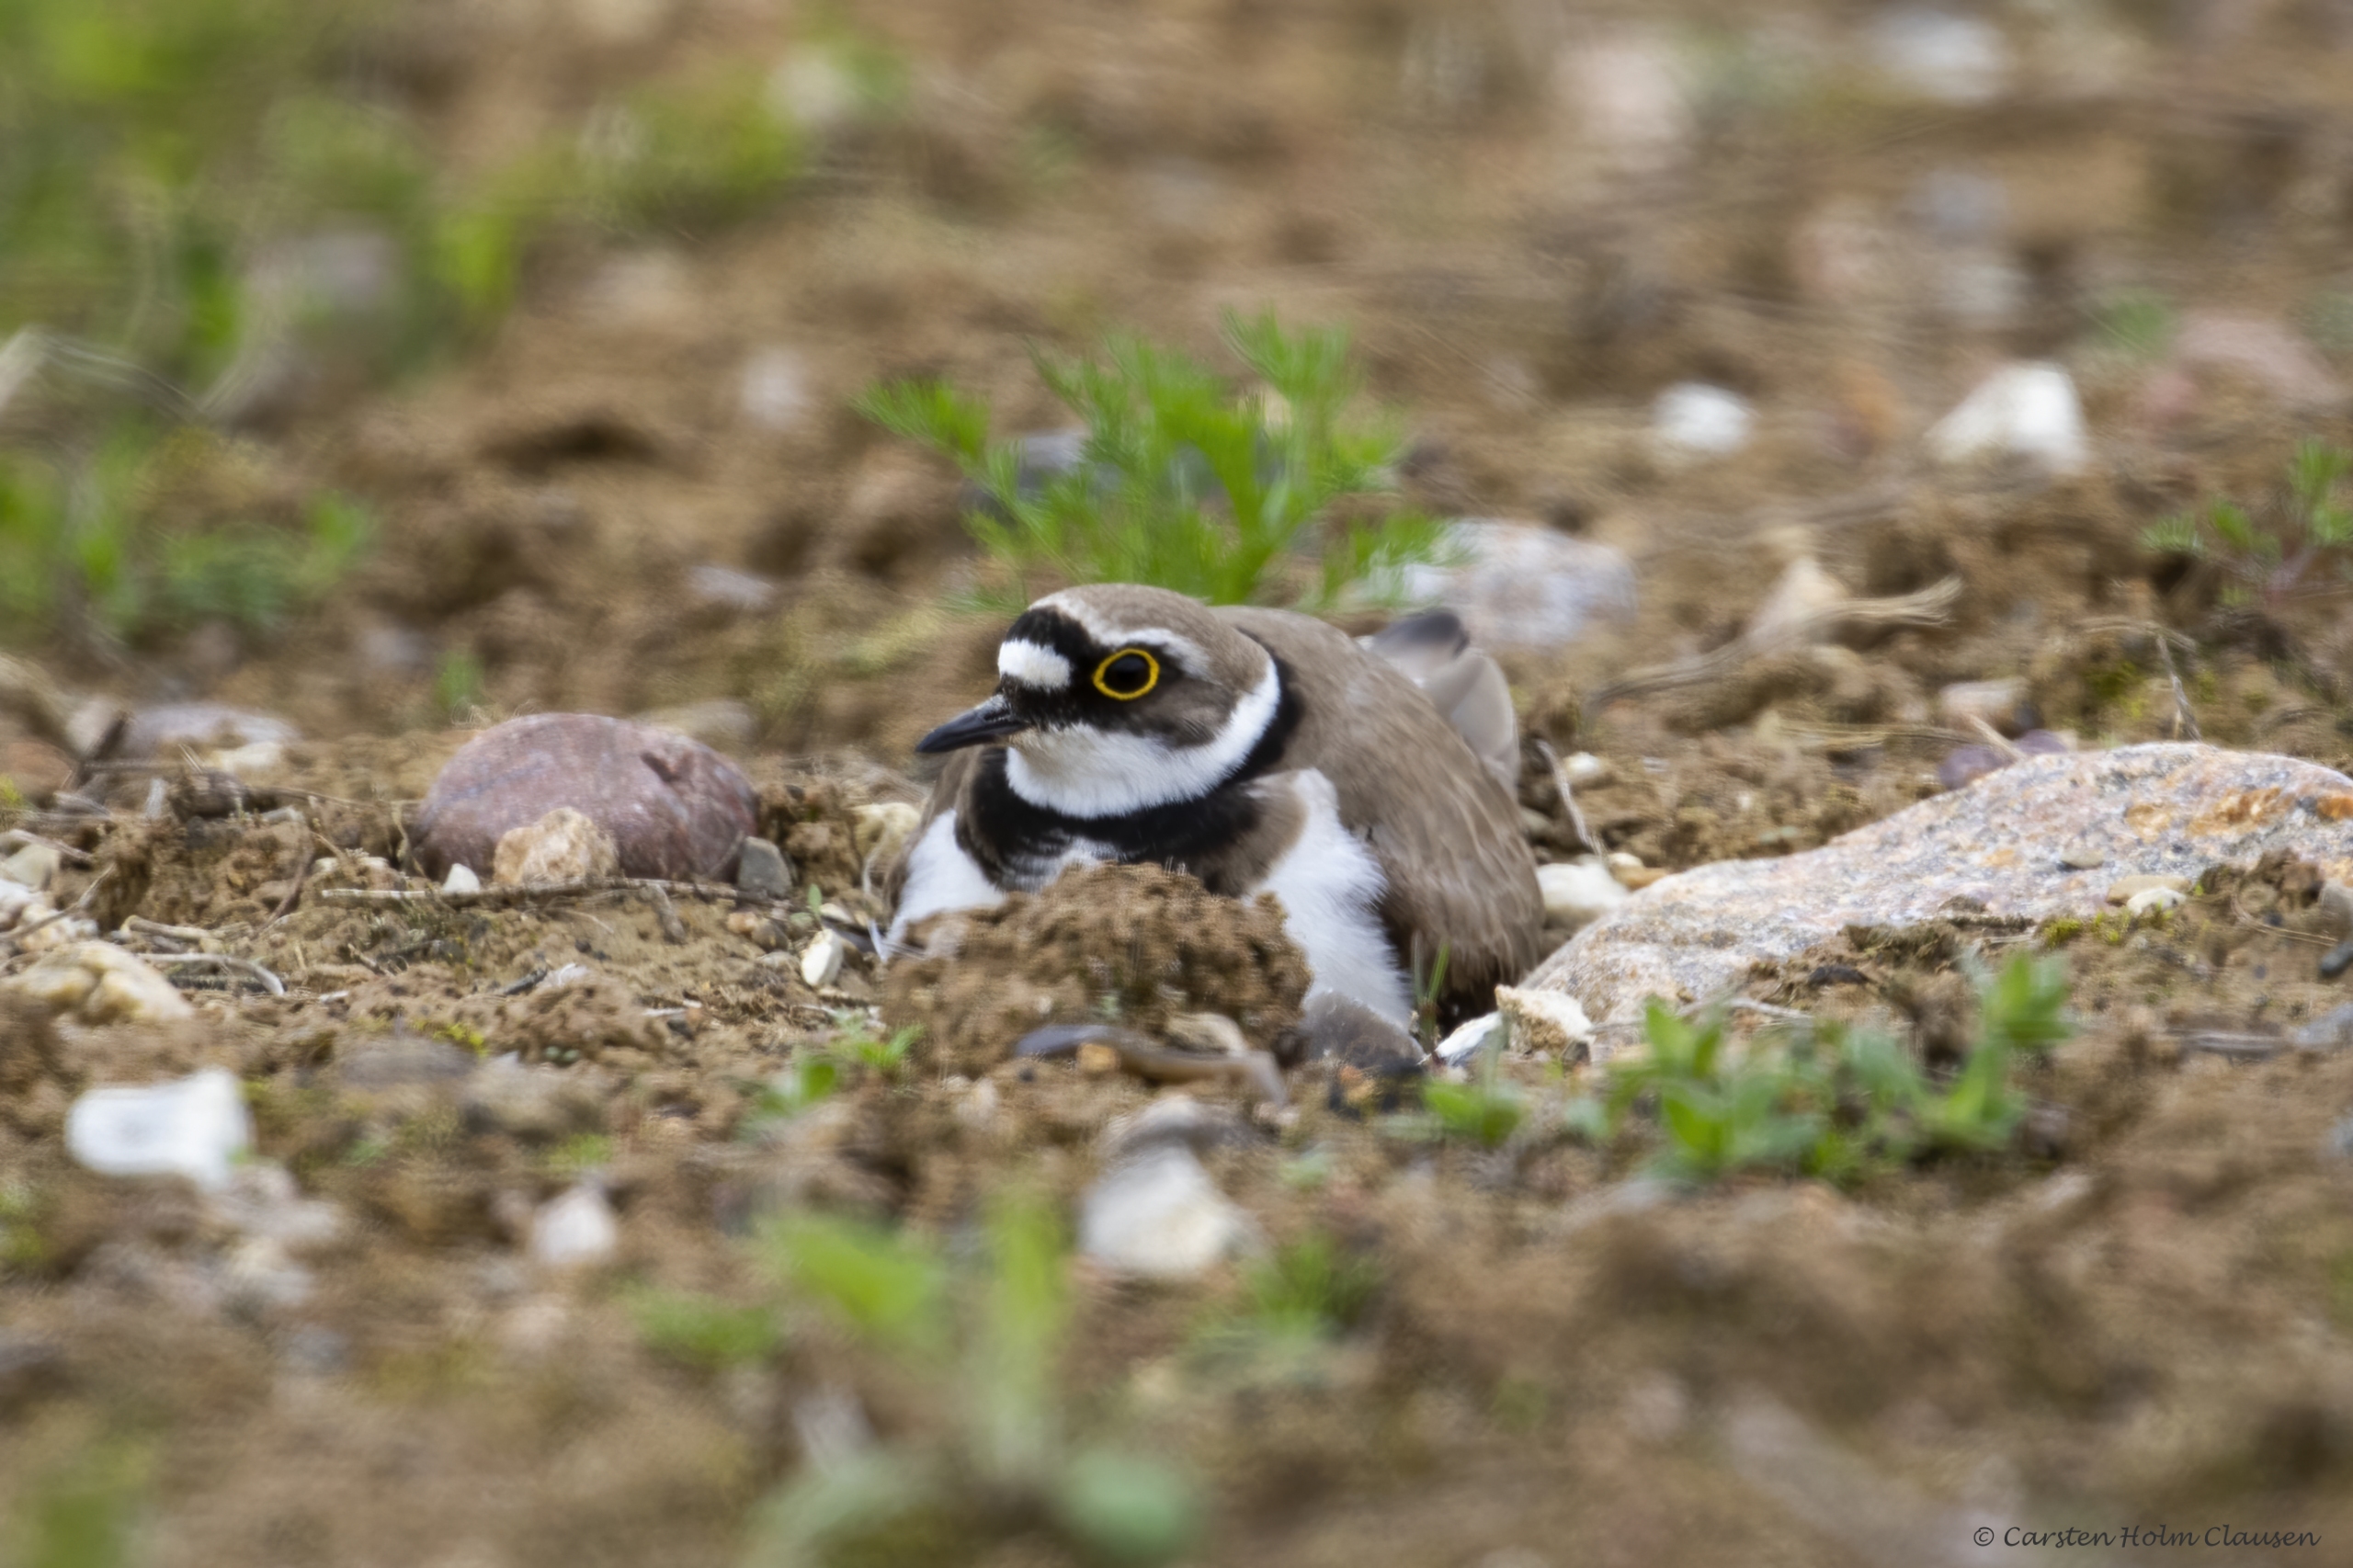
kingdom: Animalia
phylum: Chordata
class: Aves
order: Charadriiformes
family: Charadriidae
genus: Charadrius
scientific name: Charadrius dubius
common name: Lille præstekrave
